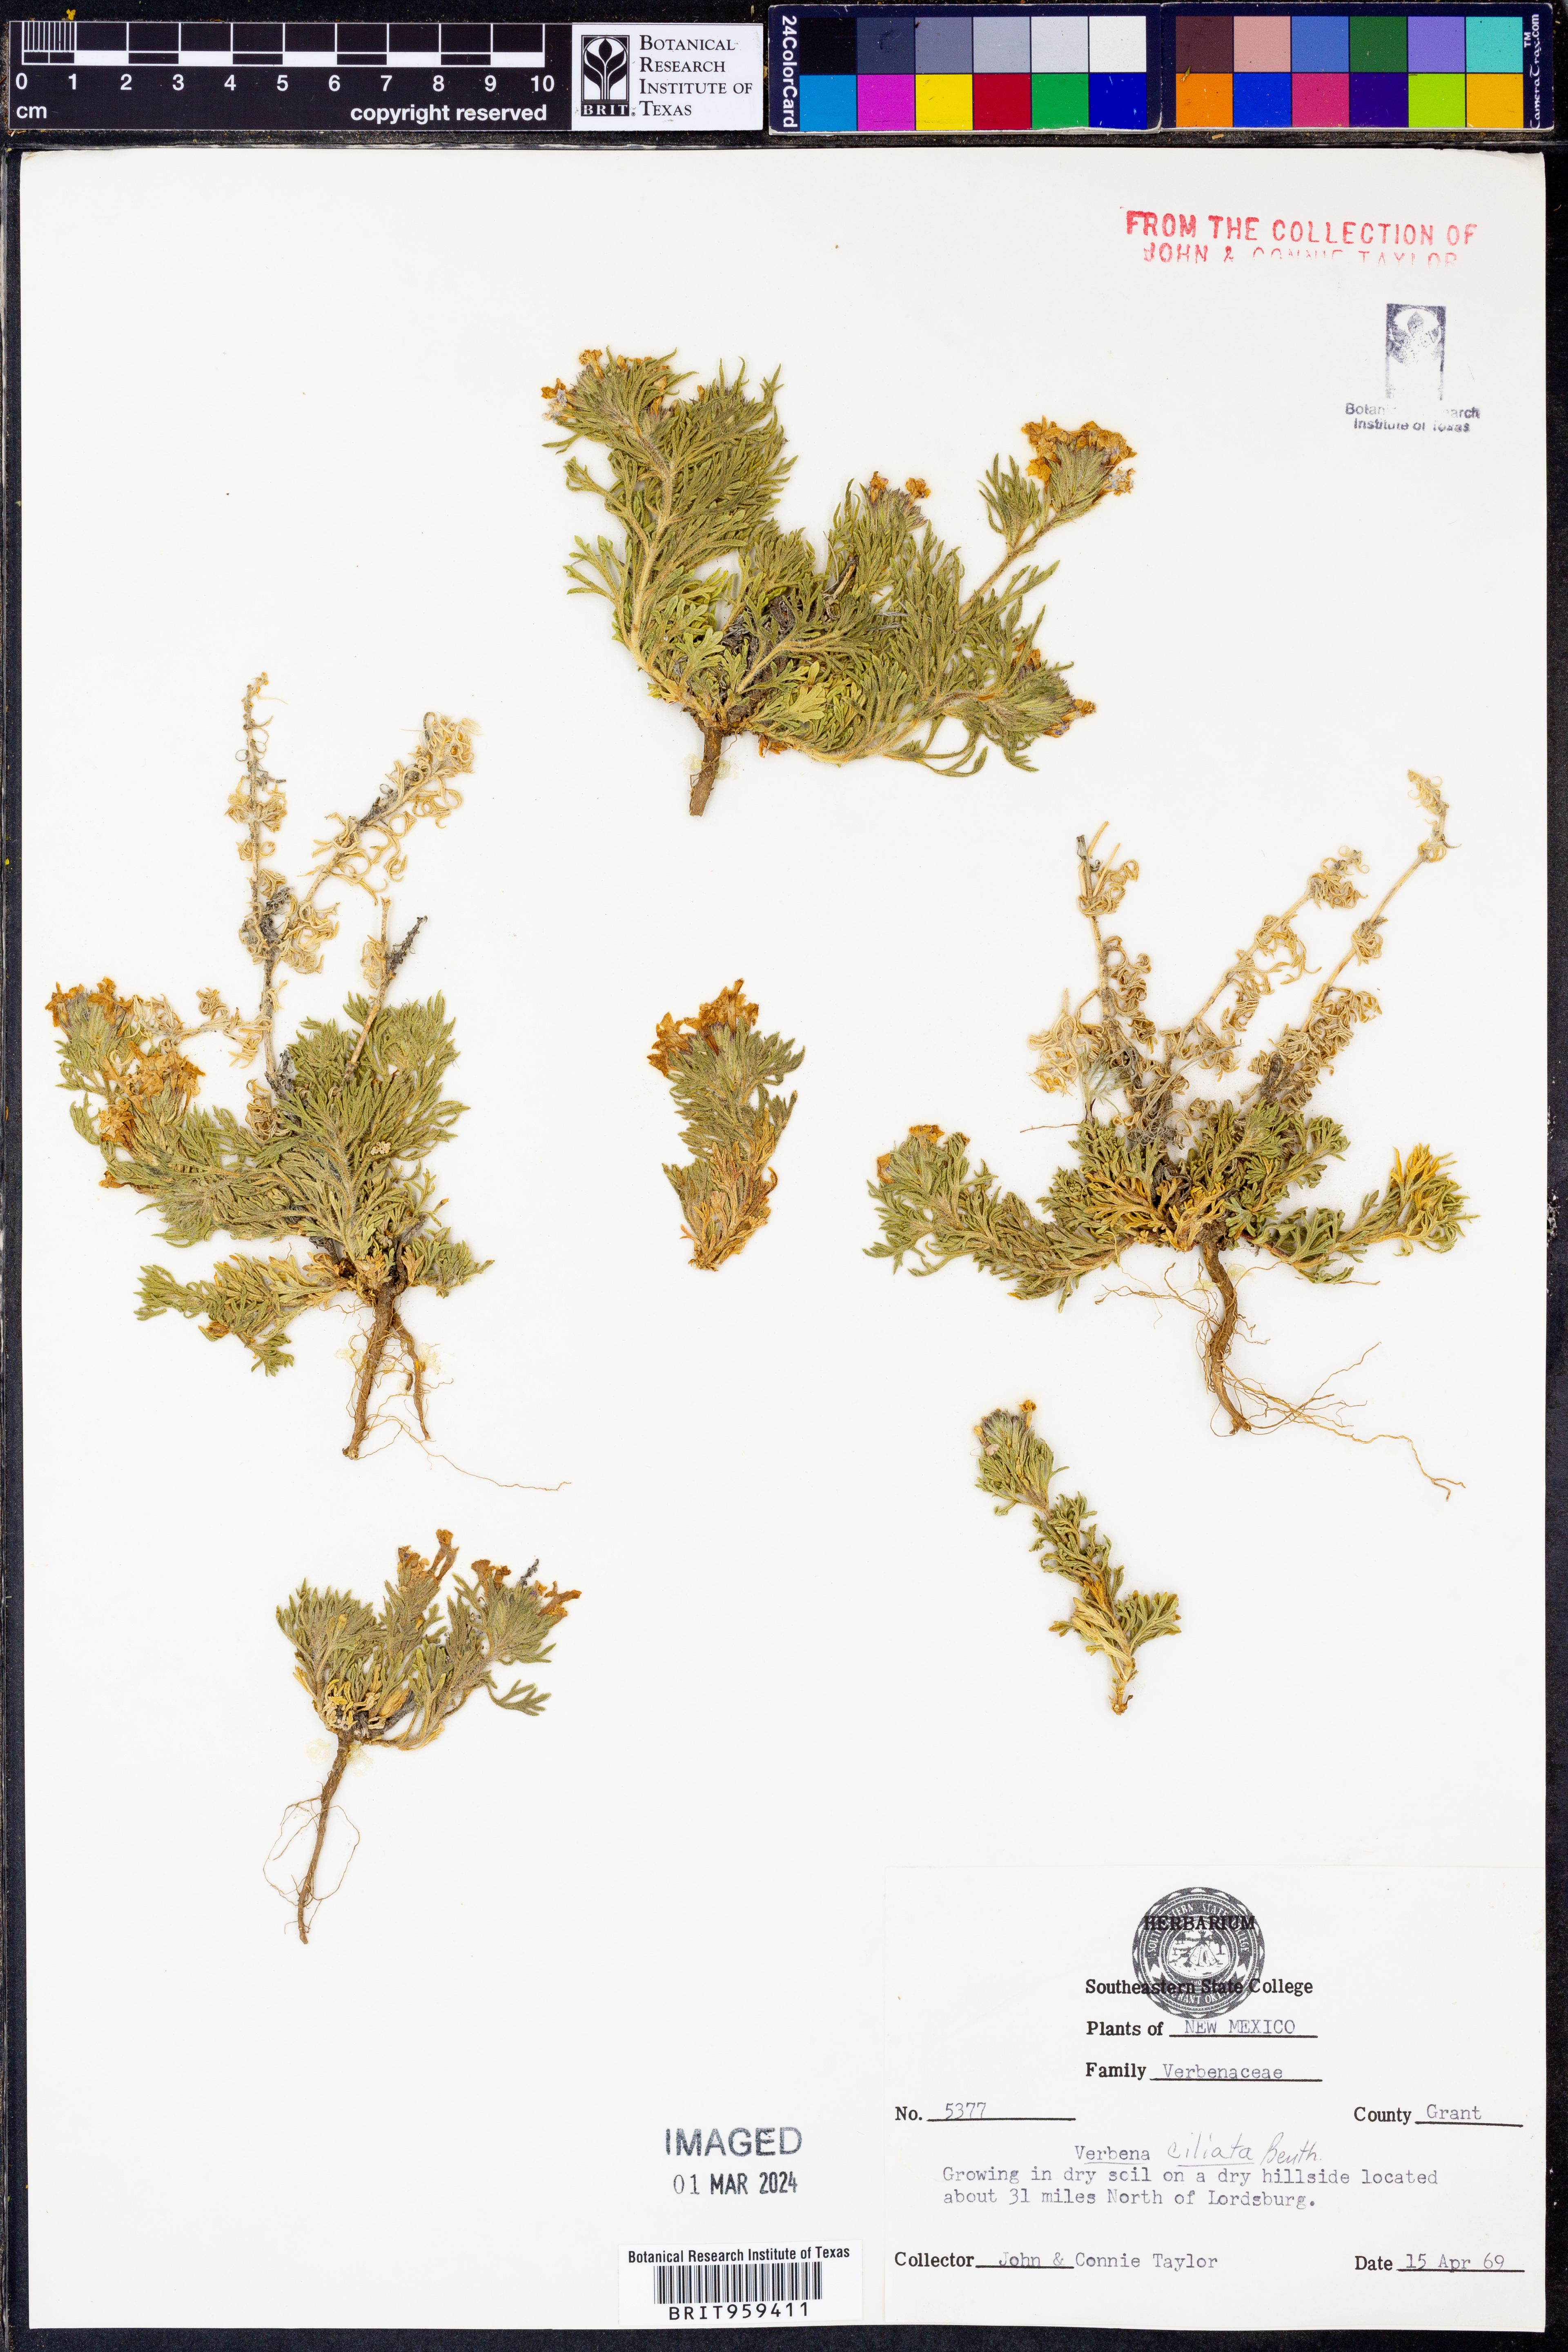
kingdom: Plantae
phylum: Tracheophyta
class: Magnoliopsida
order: Lamiales
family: Verbenaceae
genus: Verbena
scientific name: Verbena bipinnatifida
